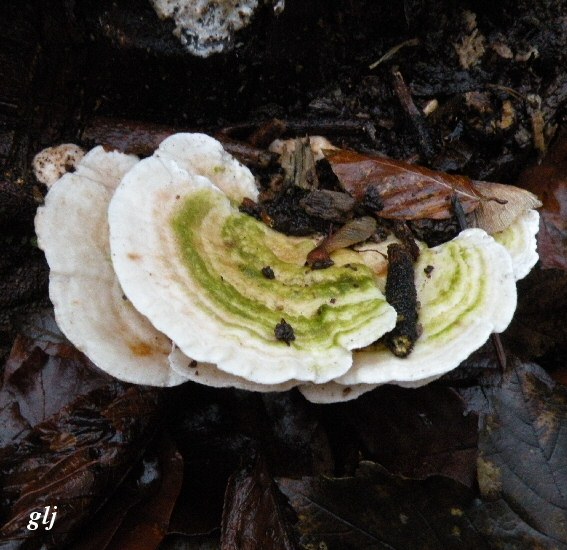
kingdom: Fungi
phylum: Basidiomycota
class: Agaricomycetes
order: Polyporales
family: Polyporaceae
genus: Trametes
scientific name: Trametes gibbosa
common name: puklet læderporesvamp
